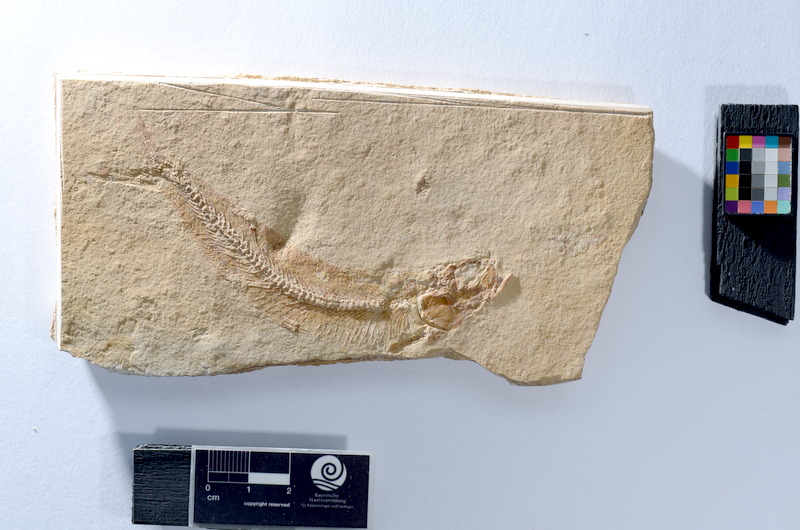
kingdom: Animalia
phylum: Chordata
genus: Thrissops
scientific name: Thrissops
